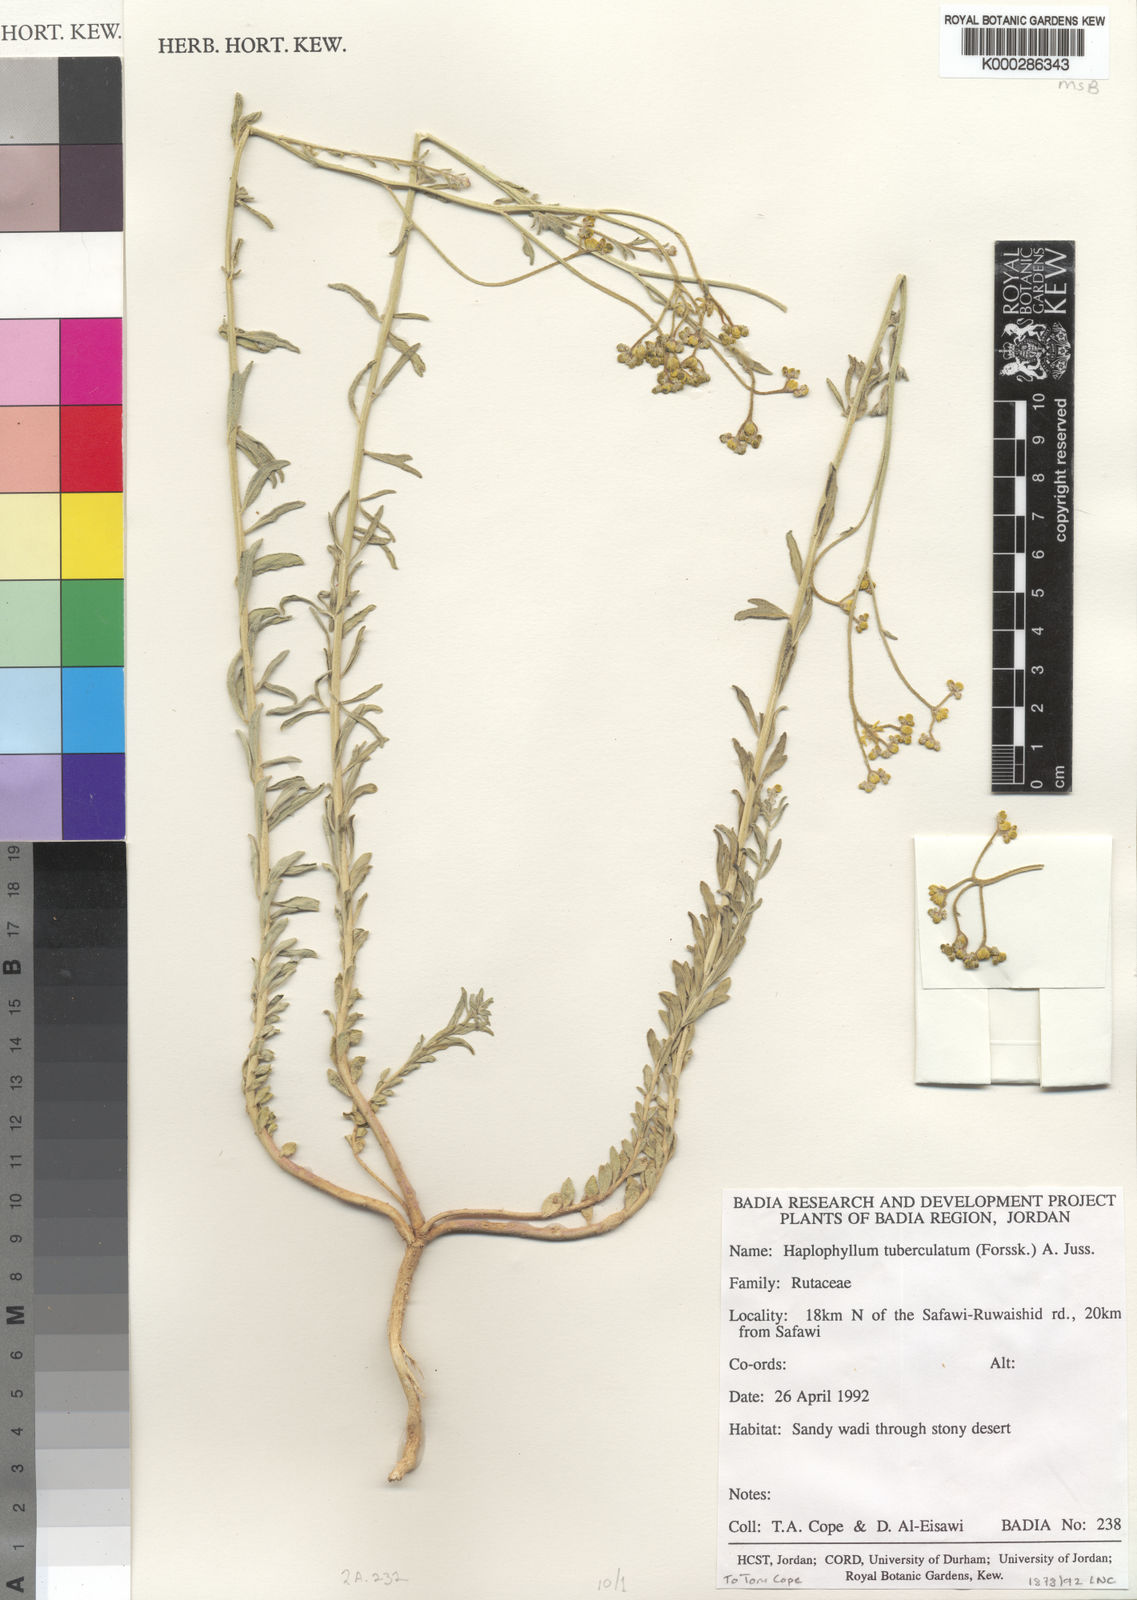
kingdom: Plantae
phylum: Tracheophyta
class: Magnoliopsida
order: Sapindales
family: Rutaceae
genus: Haplophyllum
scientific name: Haplophyllum tuberculatum
